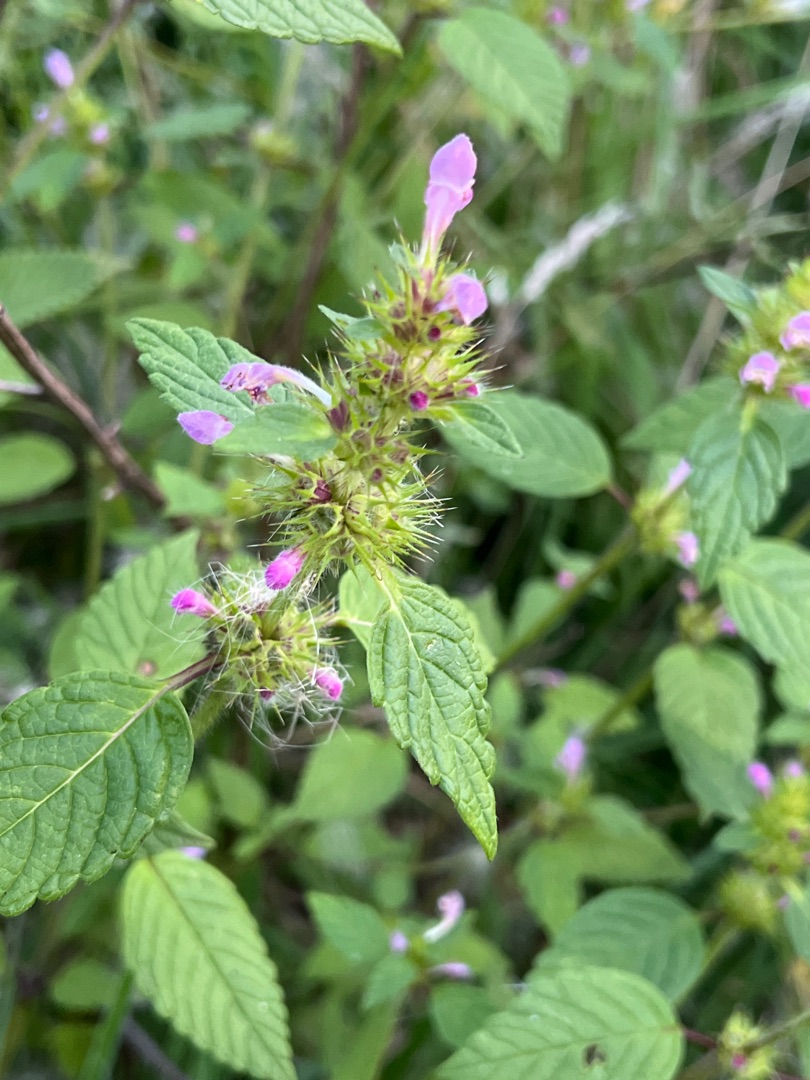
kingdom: Plantae
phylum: Tracheophyta
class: Magnoliopsida
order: Lamiales
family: Lamiaceae
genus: Galeopsis
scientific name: Galeopsis
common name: Hanekroslægten
